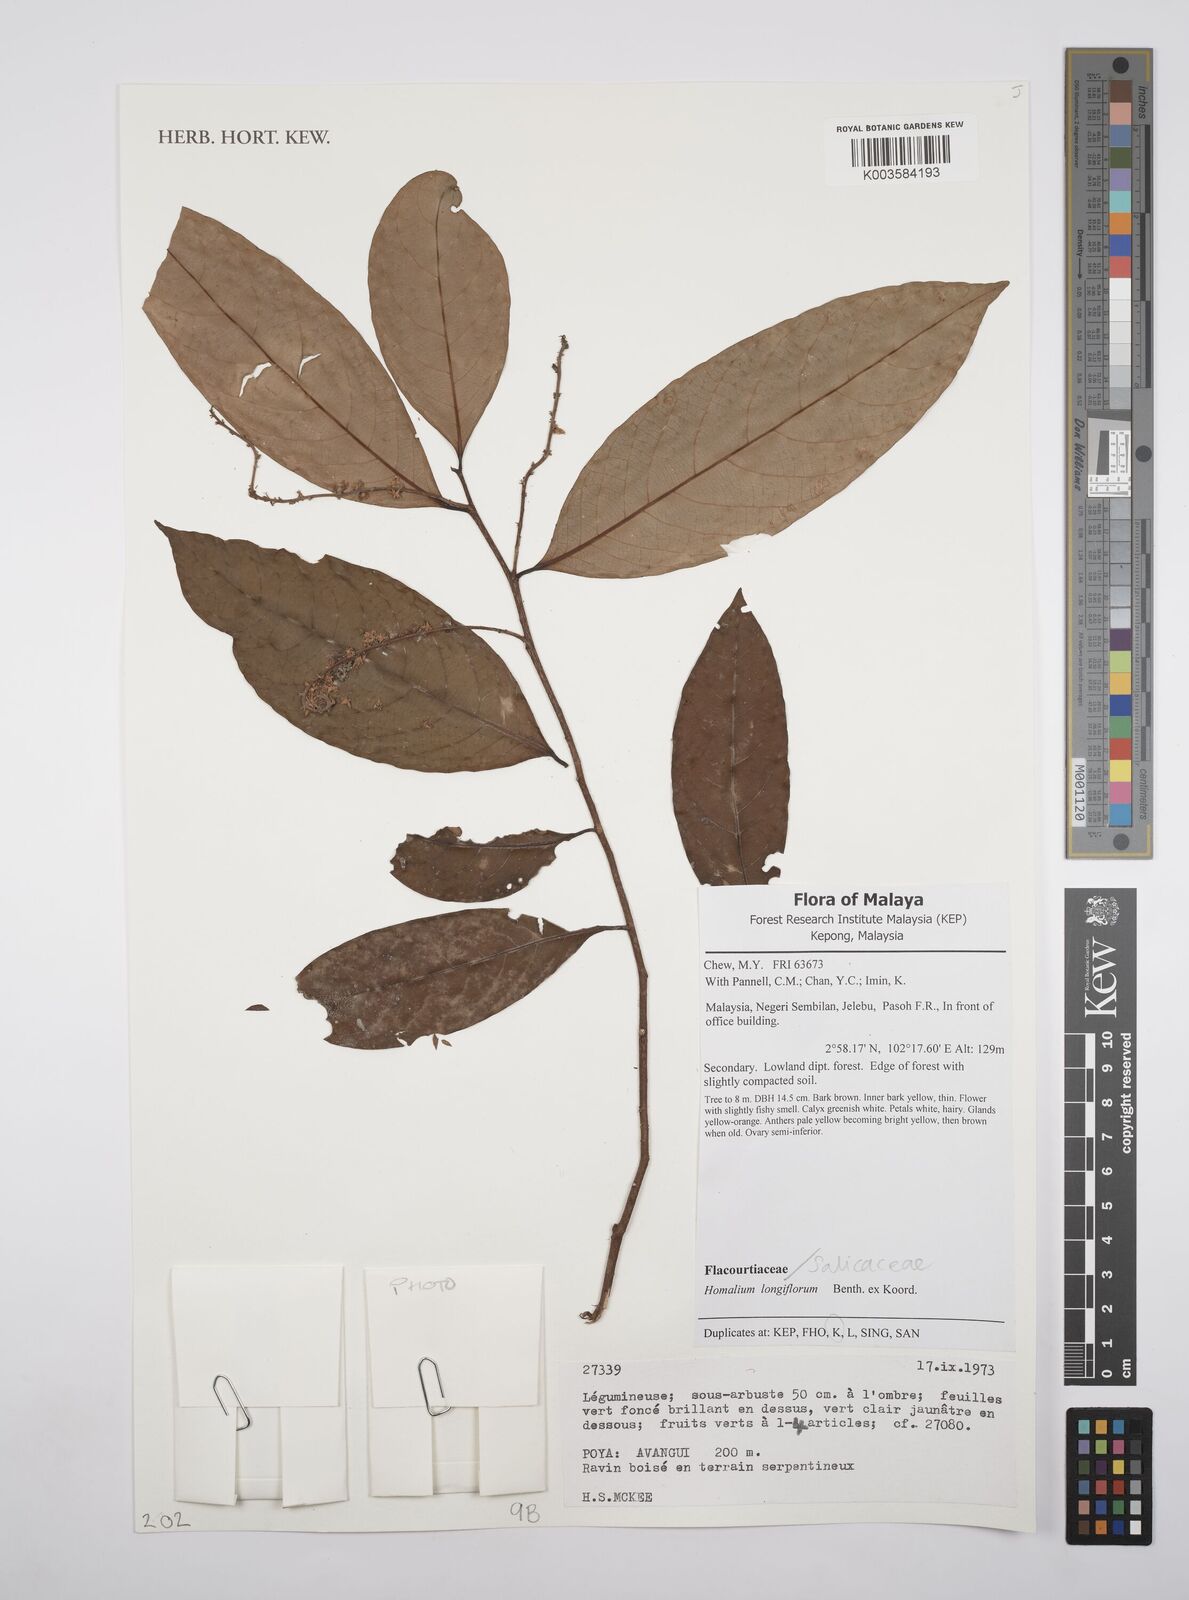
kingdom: Plantae
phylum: Tracheophyta
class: Magnoliopsida
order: Malpighiales
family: Salicaceae
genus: Homalium
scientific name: Homalium longifolium
